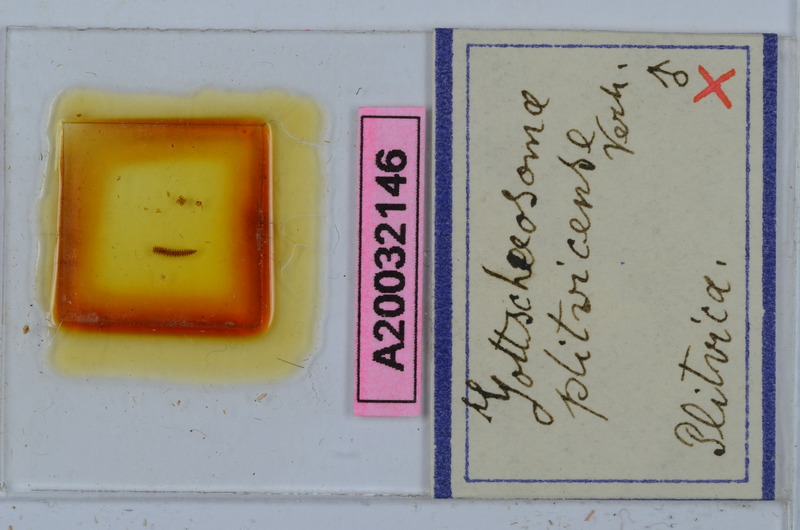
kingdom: Animalia
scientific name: Animalia
